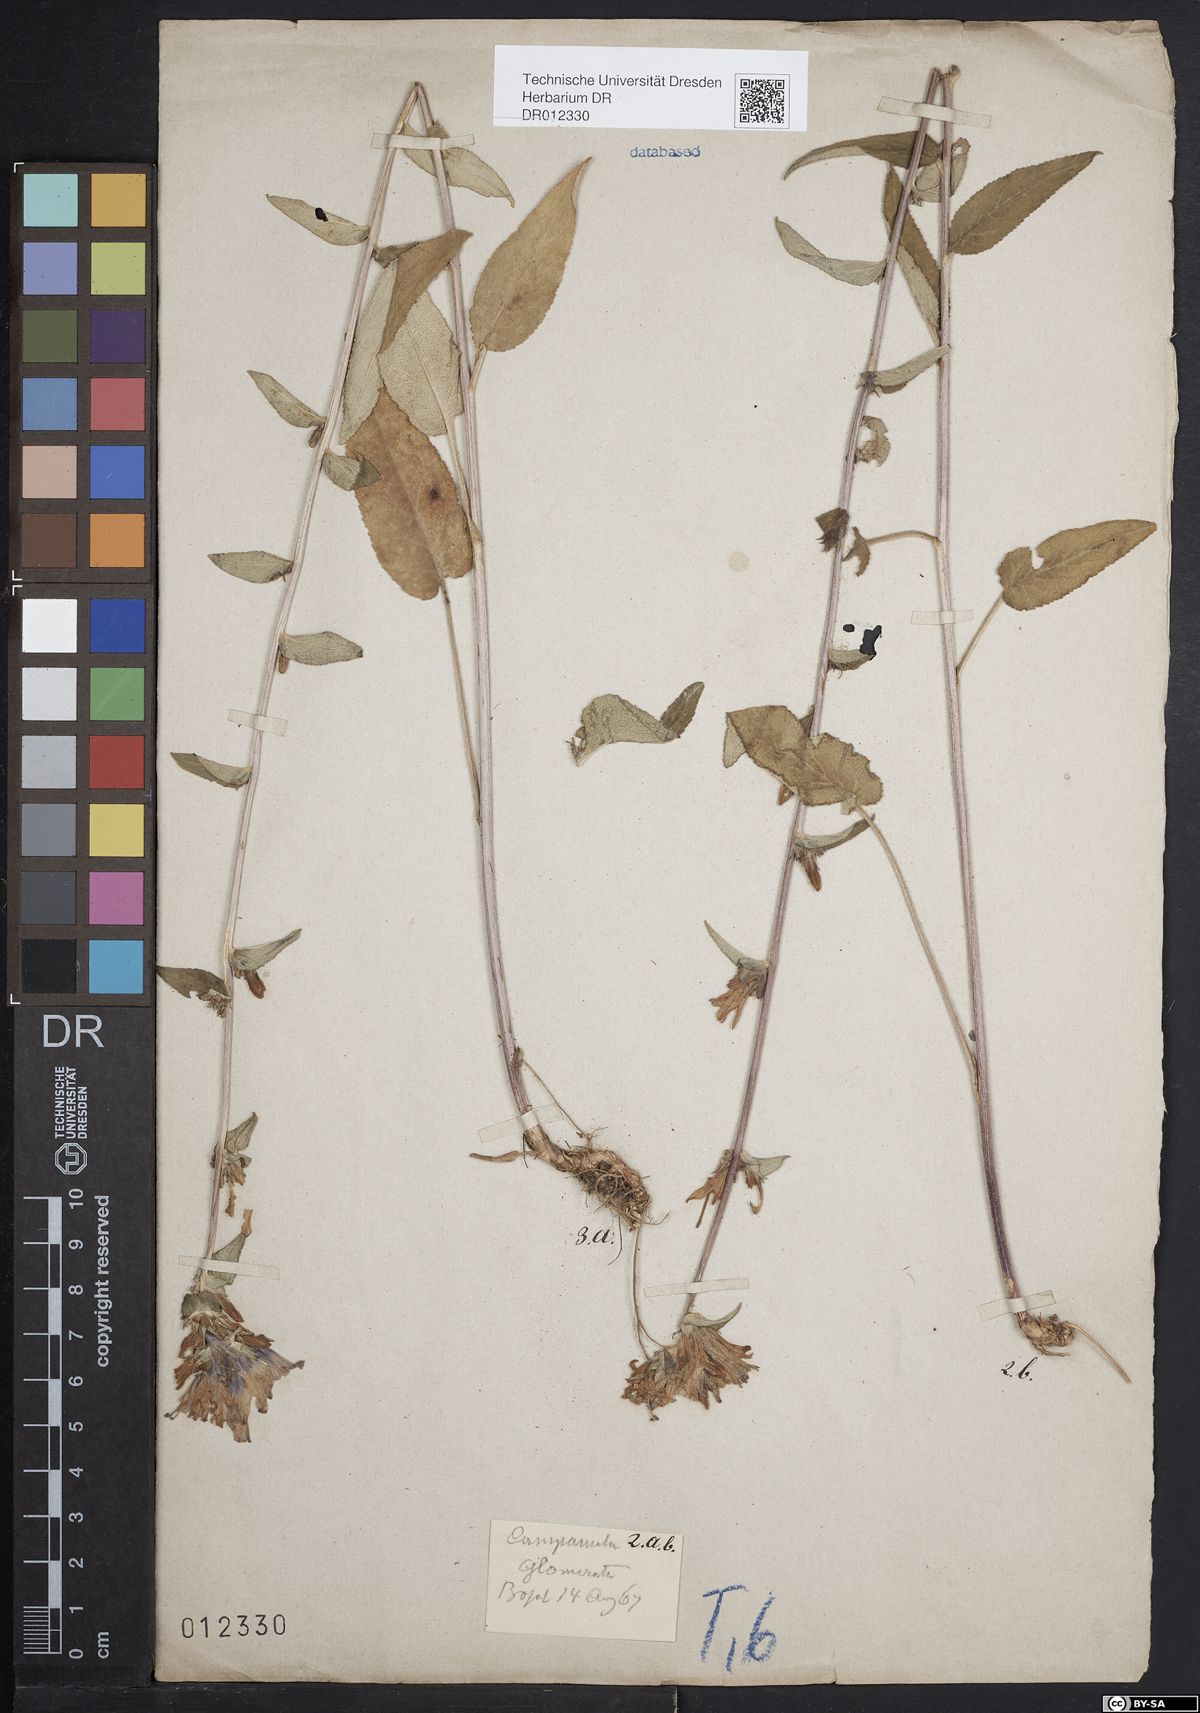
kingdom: Plantae
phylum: Tracheophyta
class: Magnoliopsida
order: Asterales
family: Campanulaceae
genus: Campanula
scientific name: Campanula glomerata
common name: Clustered bellflower
